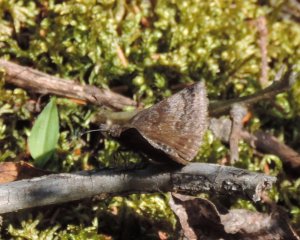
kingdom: Animalia
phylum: Arthropoda
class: Insecta
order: Lepidoptera
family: Hesperiidae
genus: Erynnis
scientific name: Erynnis icelus
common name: Dreamy Duskywing
